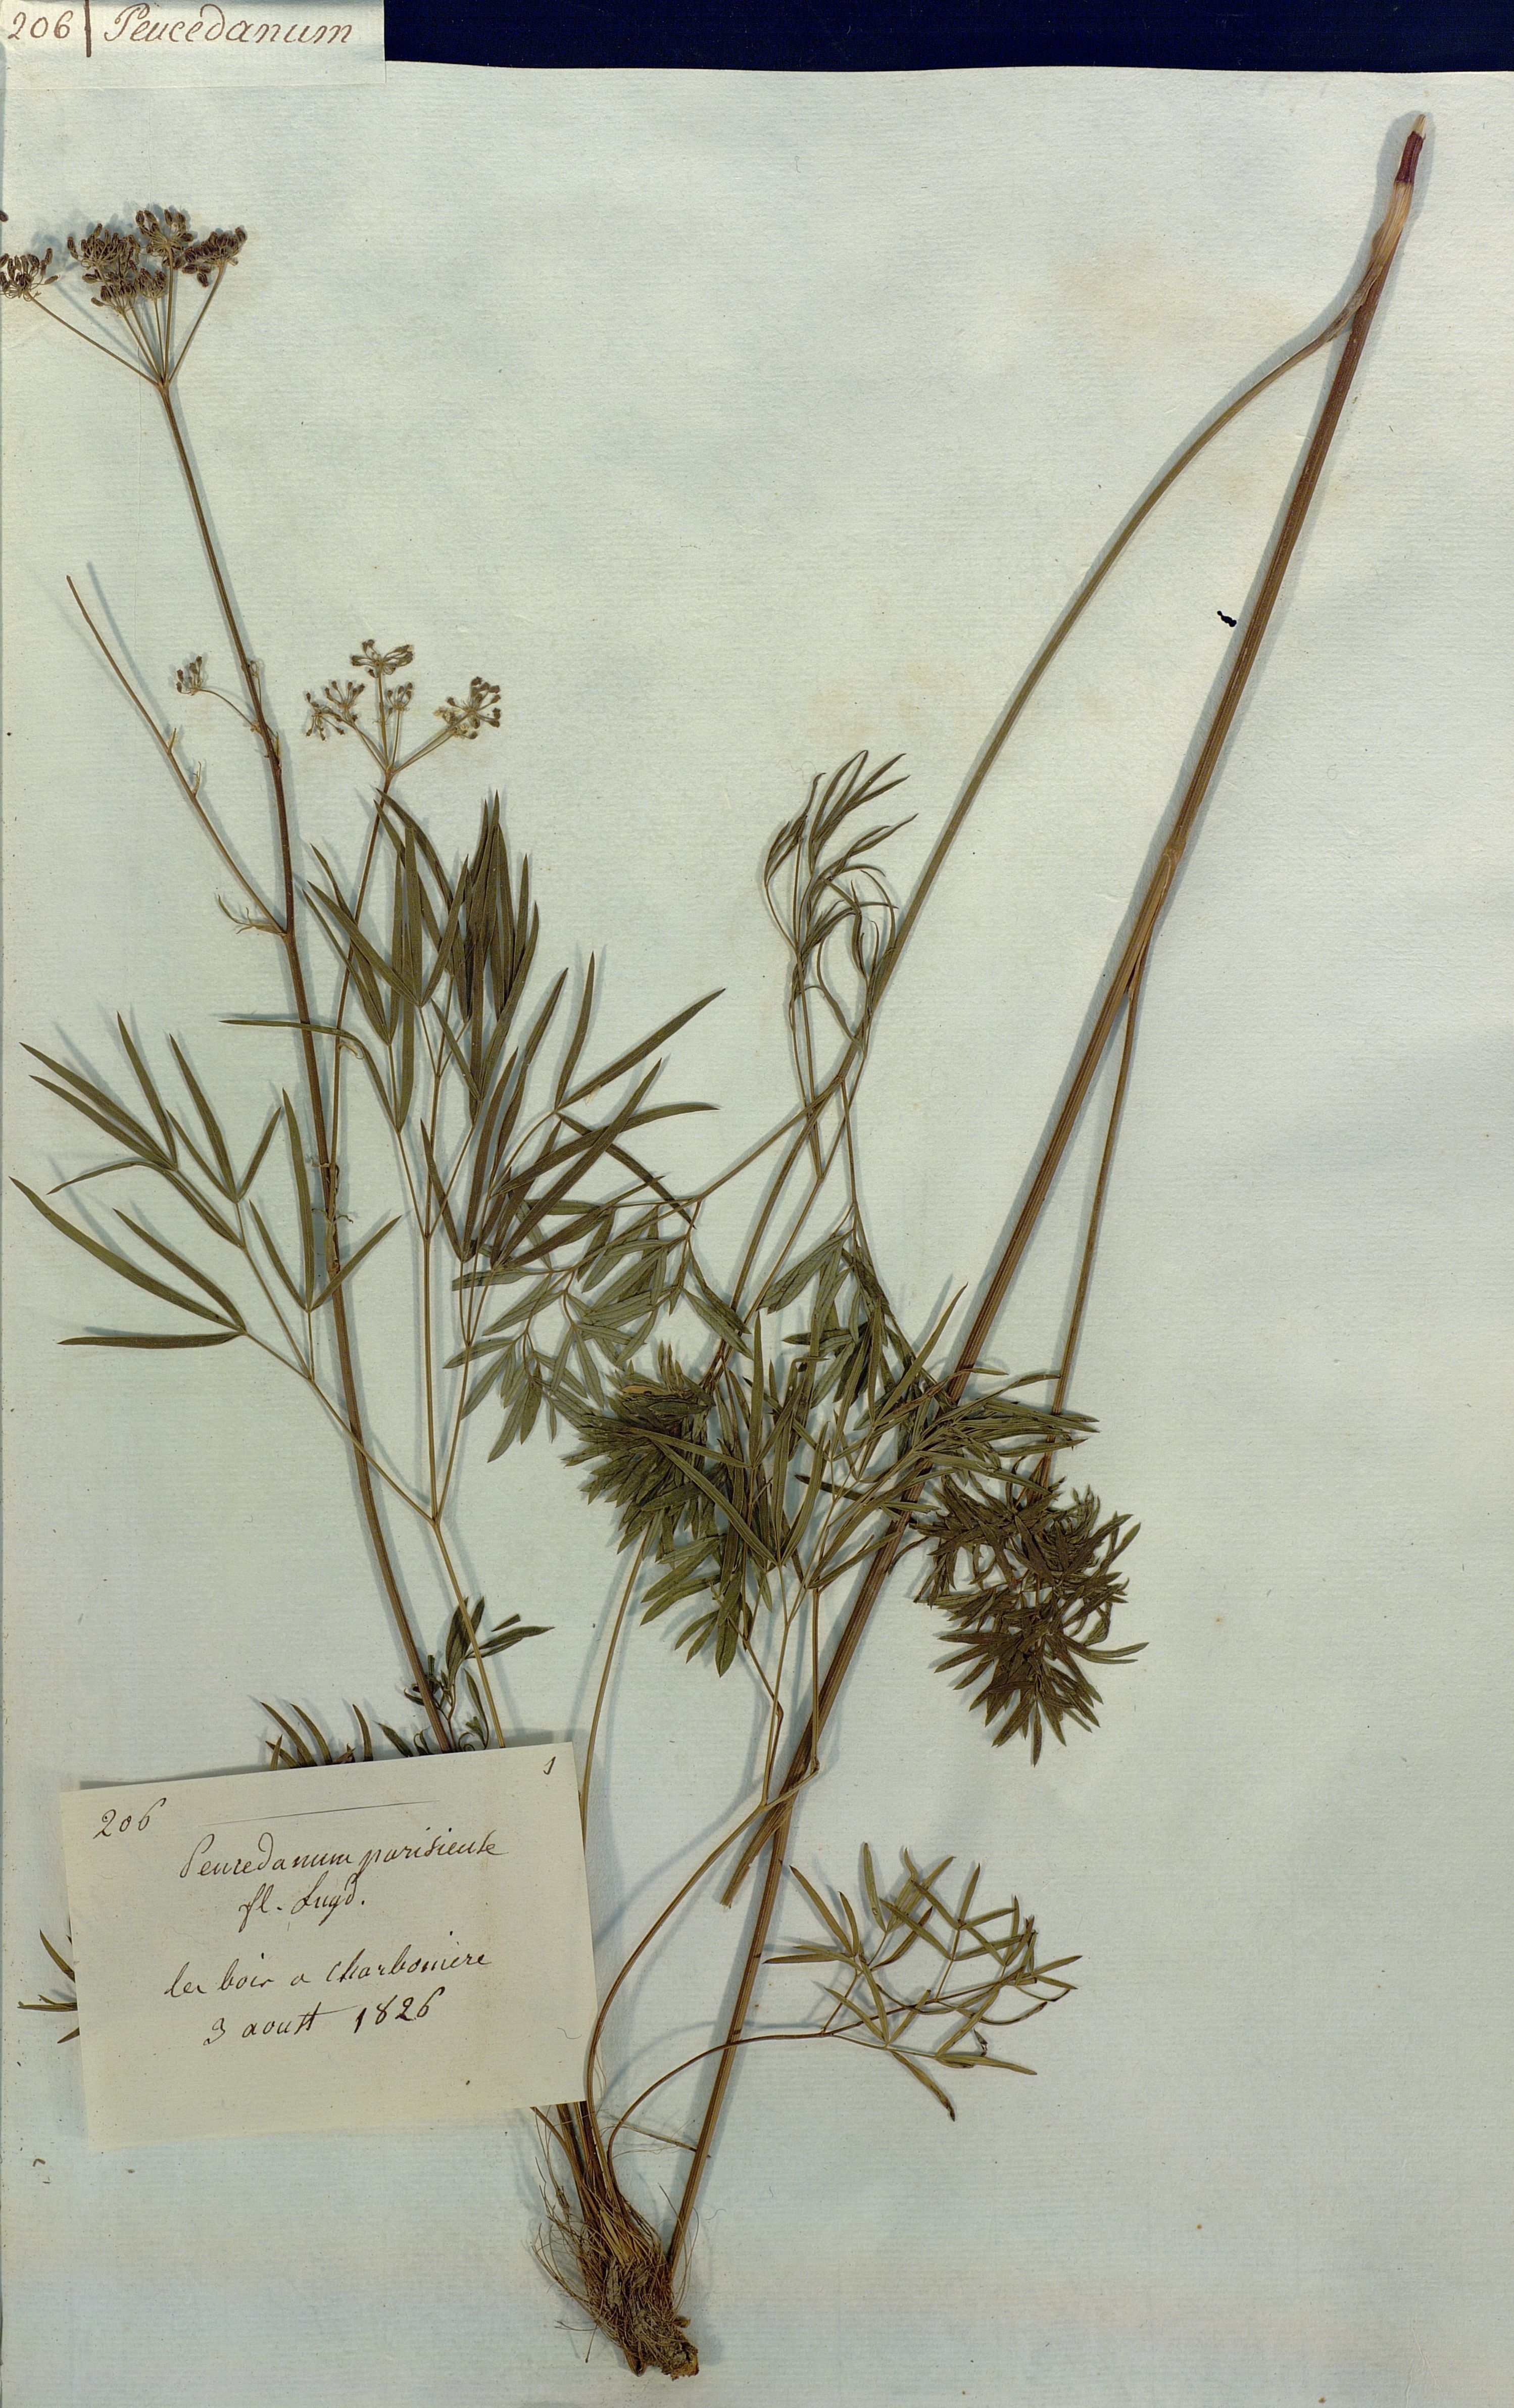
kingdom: Plantae
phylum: Tracheophyta
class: Magnoliopsida
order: Apiales
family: Apiaceae
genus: Peucedanum
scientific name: Peucedanum
